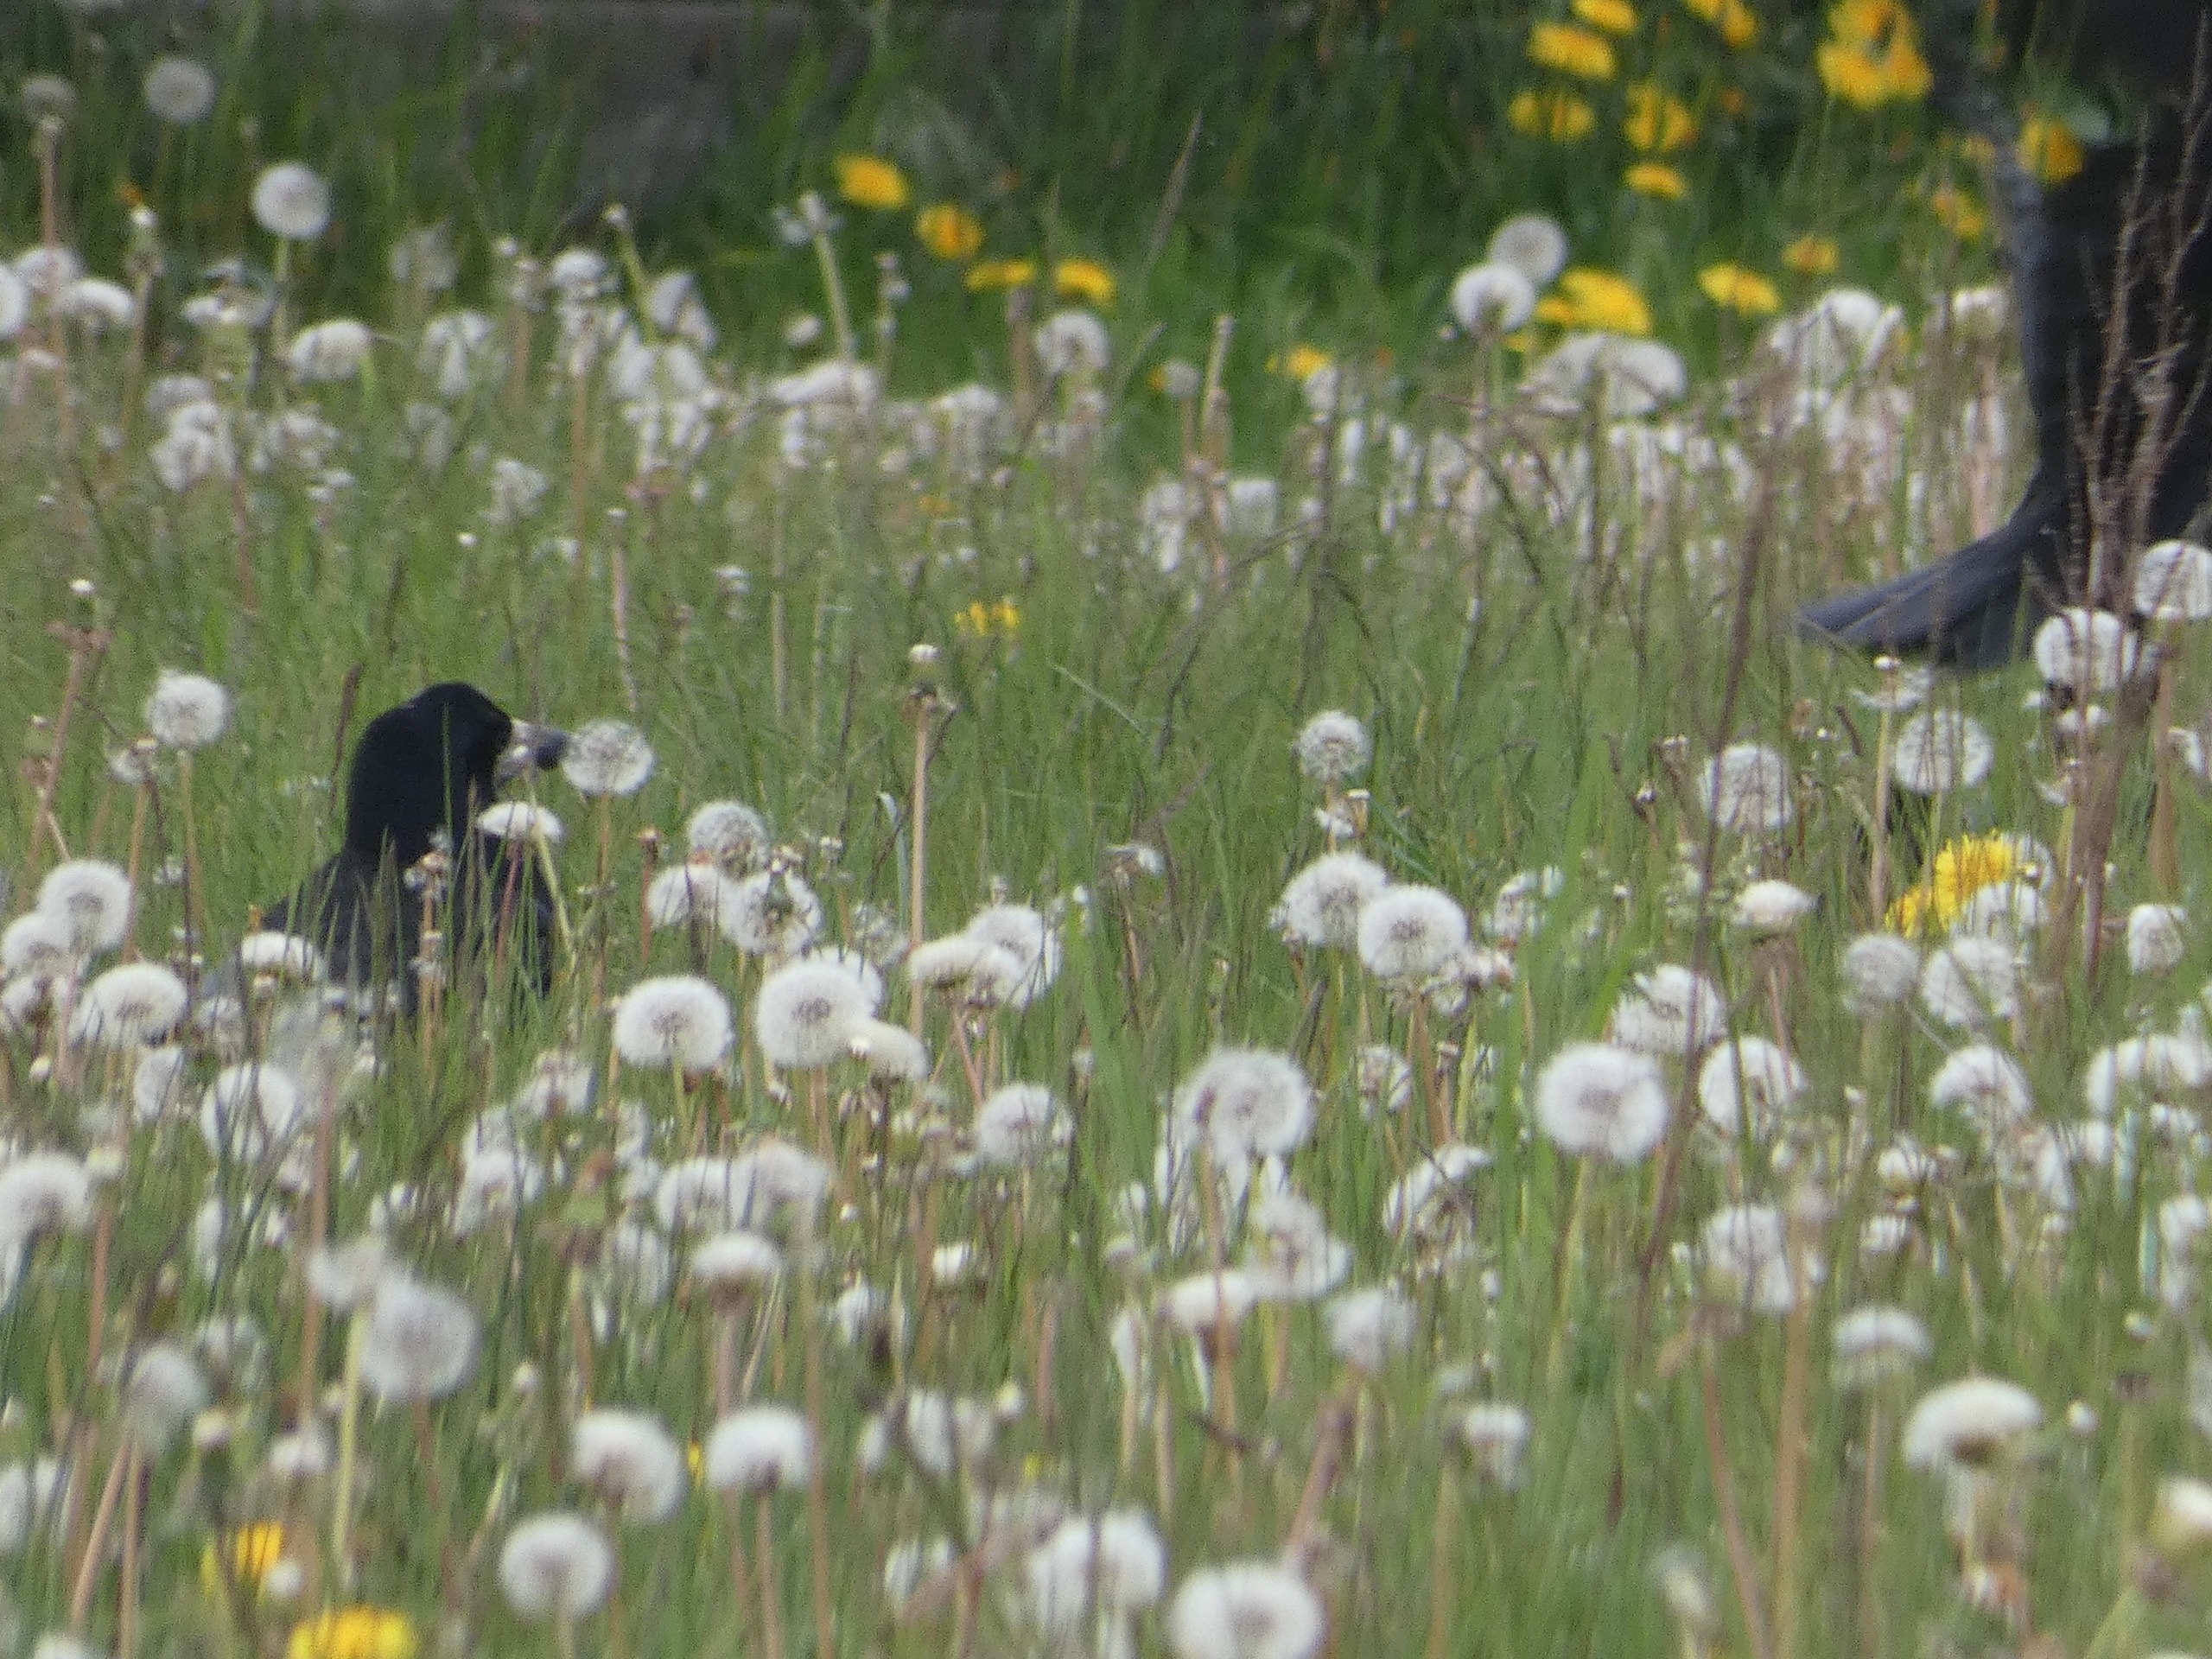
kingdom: Animalia
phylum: Chordata
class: Aves
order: Passeriformes
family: Corvidae
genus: Corvus
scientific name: Corvus frugilegus
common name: Råge
